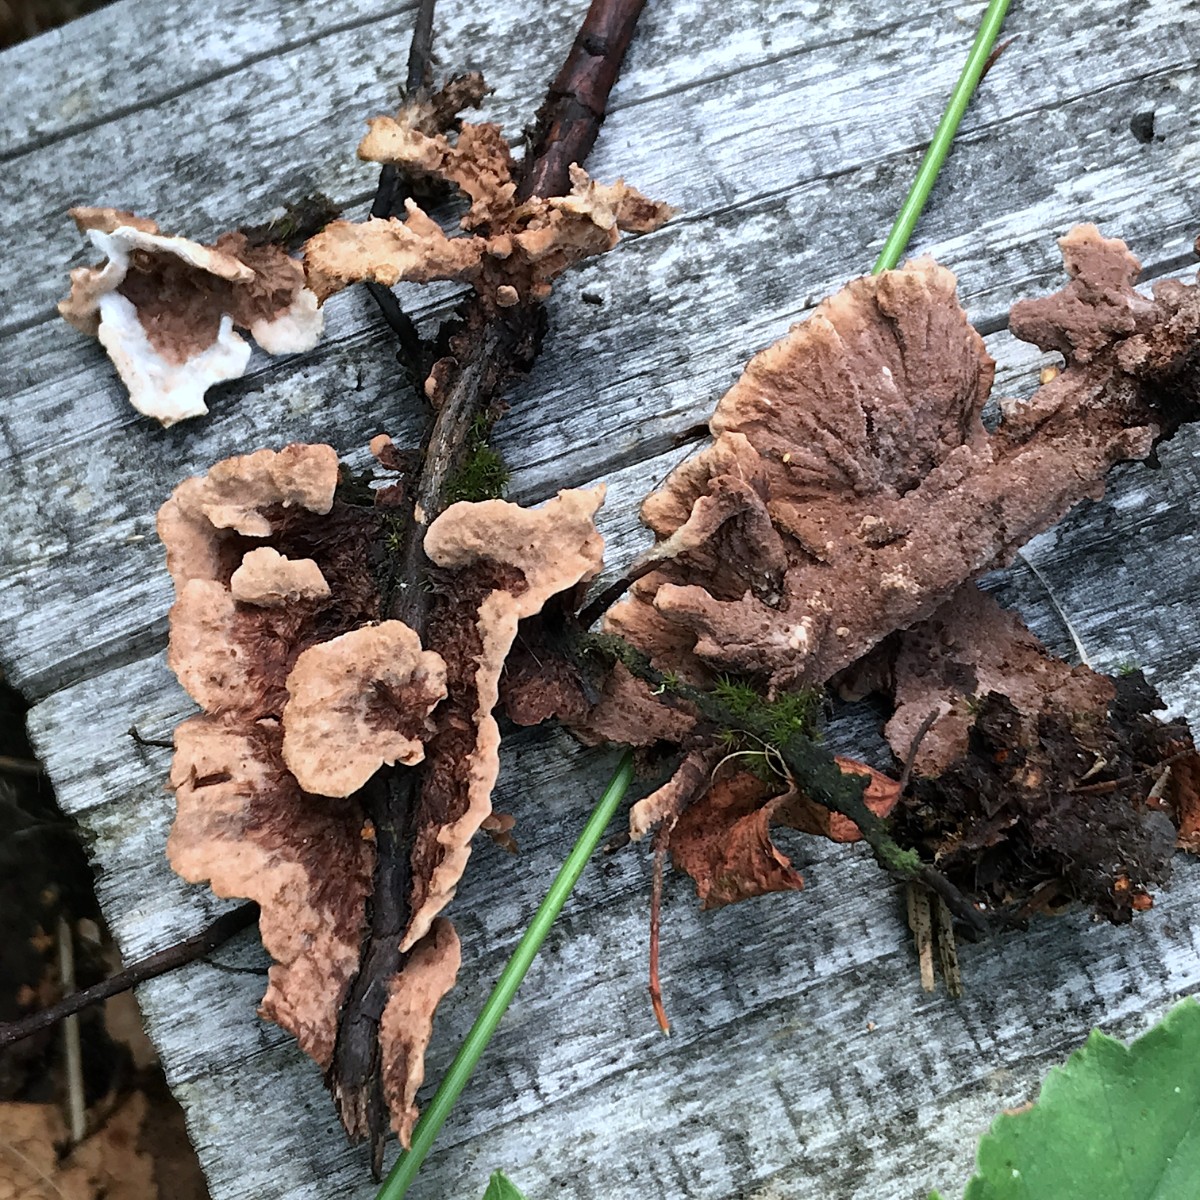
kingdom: Fungi
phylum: Basidiomycota
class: Agaricomycetes
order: Thelephorales
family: Thelephoraceae
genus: Thelephora
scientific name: Thelephora terrestris
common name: fliget frynsesvamp
